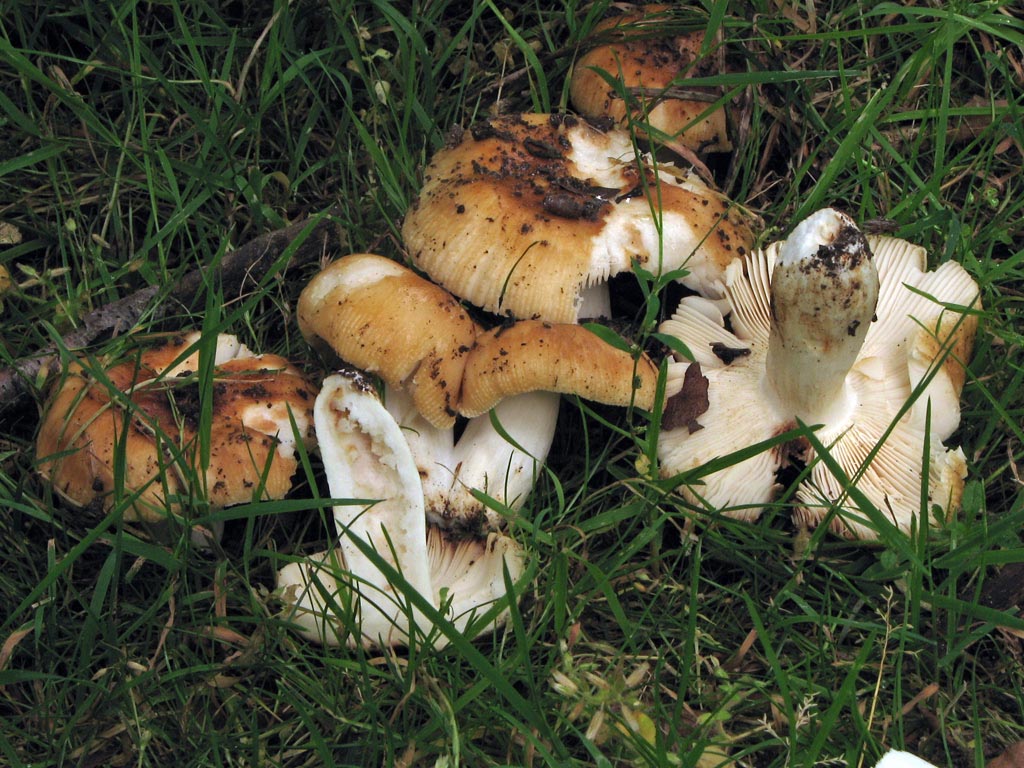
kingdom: Fungi
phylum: Basidiomycota
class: Agaricomycetes
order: Russulales
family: Russulaceae
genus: Russula
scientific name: Russula foetens
